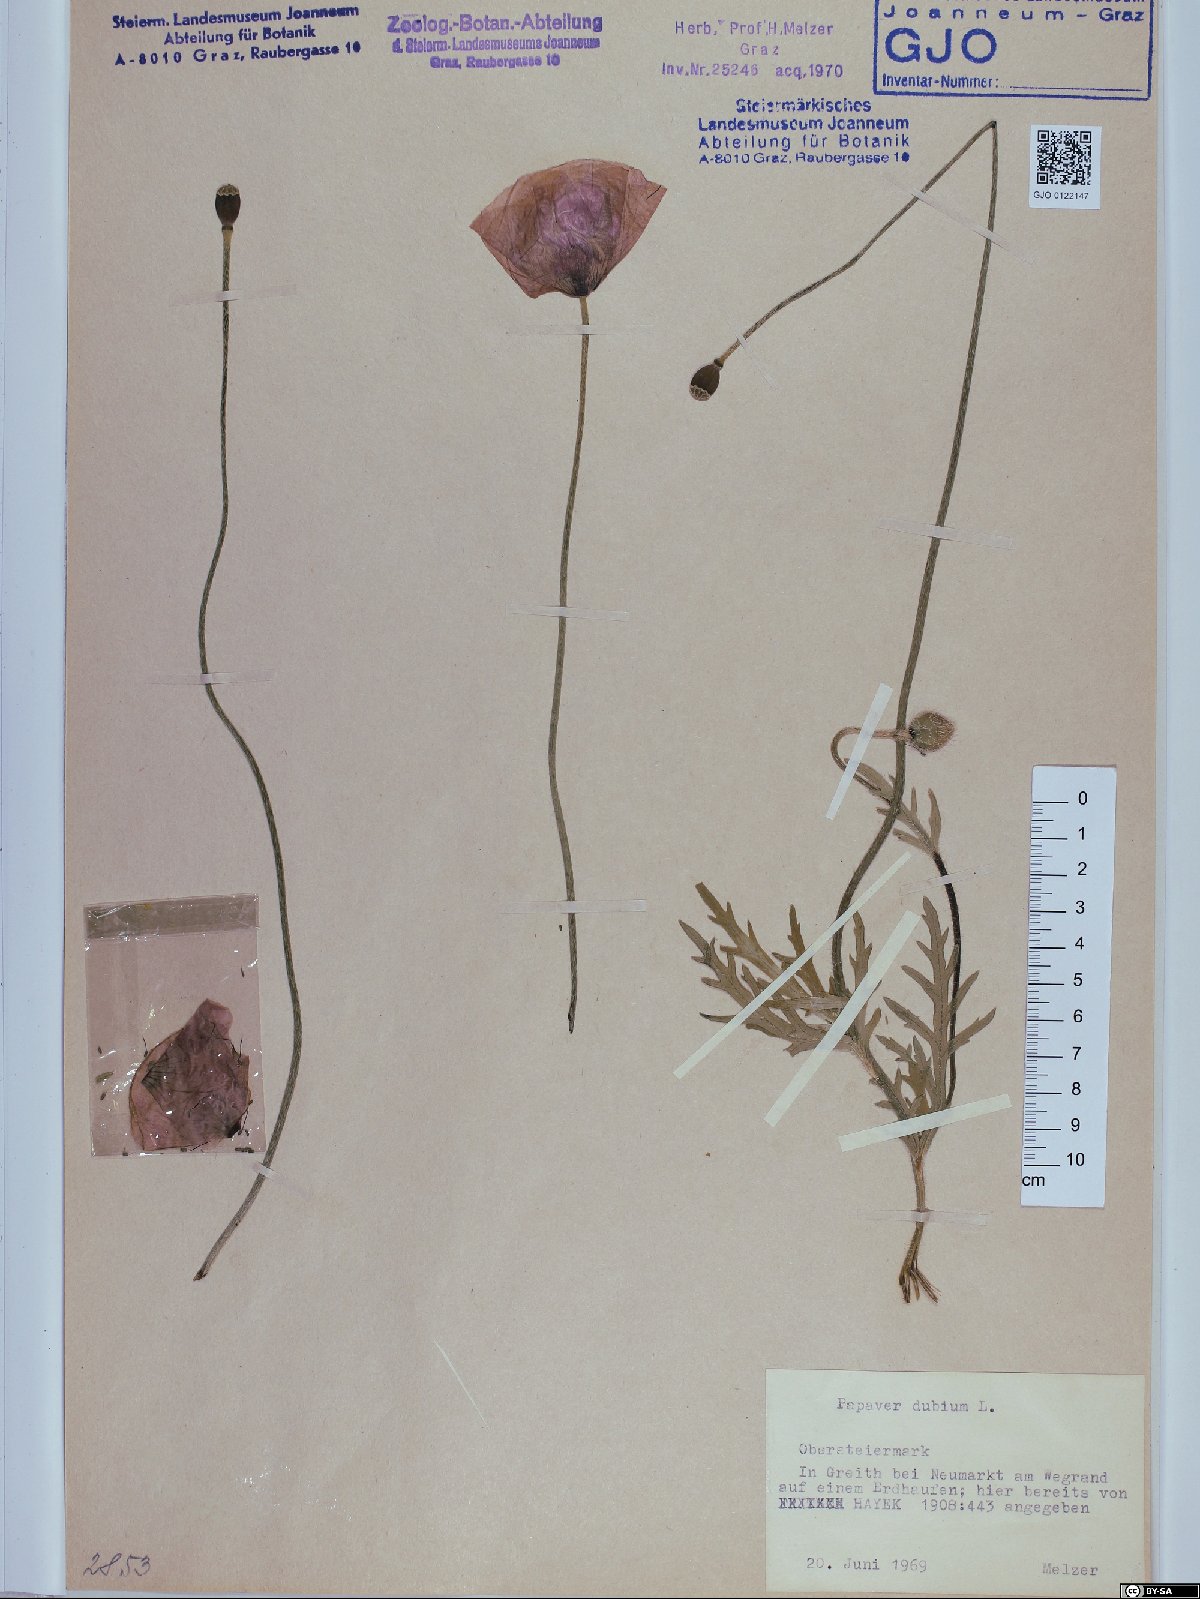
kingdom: Plantae
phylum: Tracheophyta
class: Magnoliopsida
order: Ranunculales
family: Papaveraceae
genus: Papaver
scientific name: Papaver dubium
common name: Long-headed poppy
